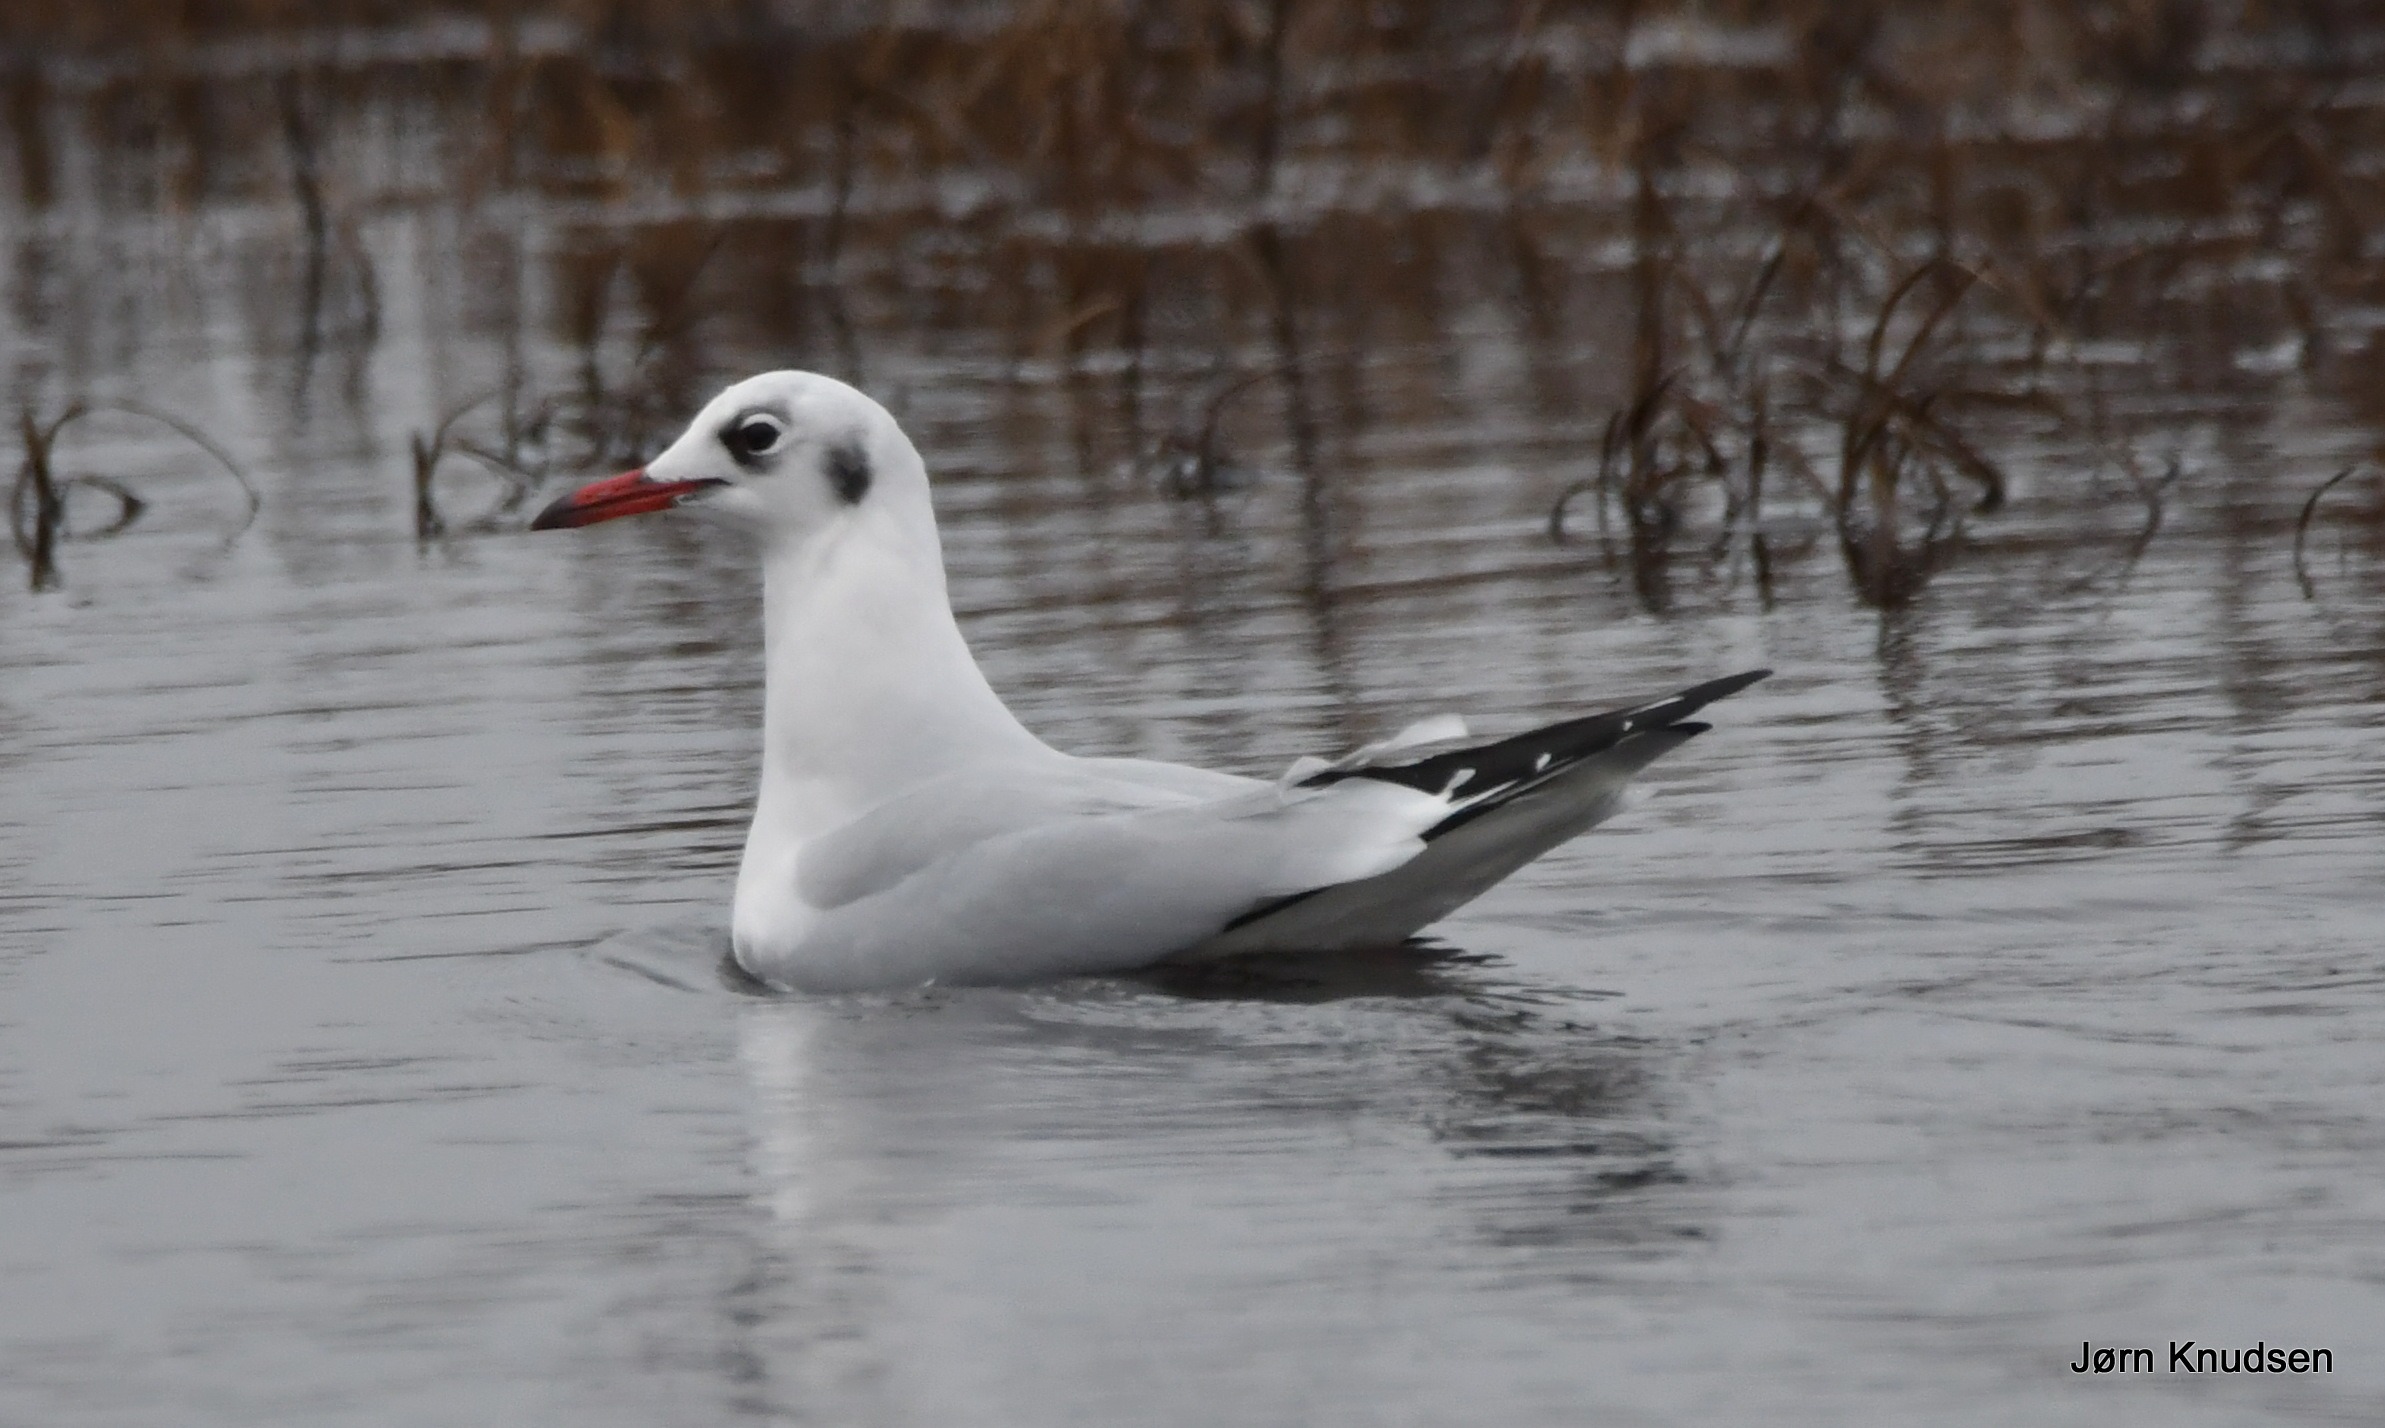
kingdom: Animalia
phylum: Chordata
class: Aves
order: Charadriiformes
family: Laridae
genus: Chroicocephalus
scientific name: Chroicocephalus ridibundus
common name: Hættemåge
